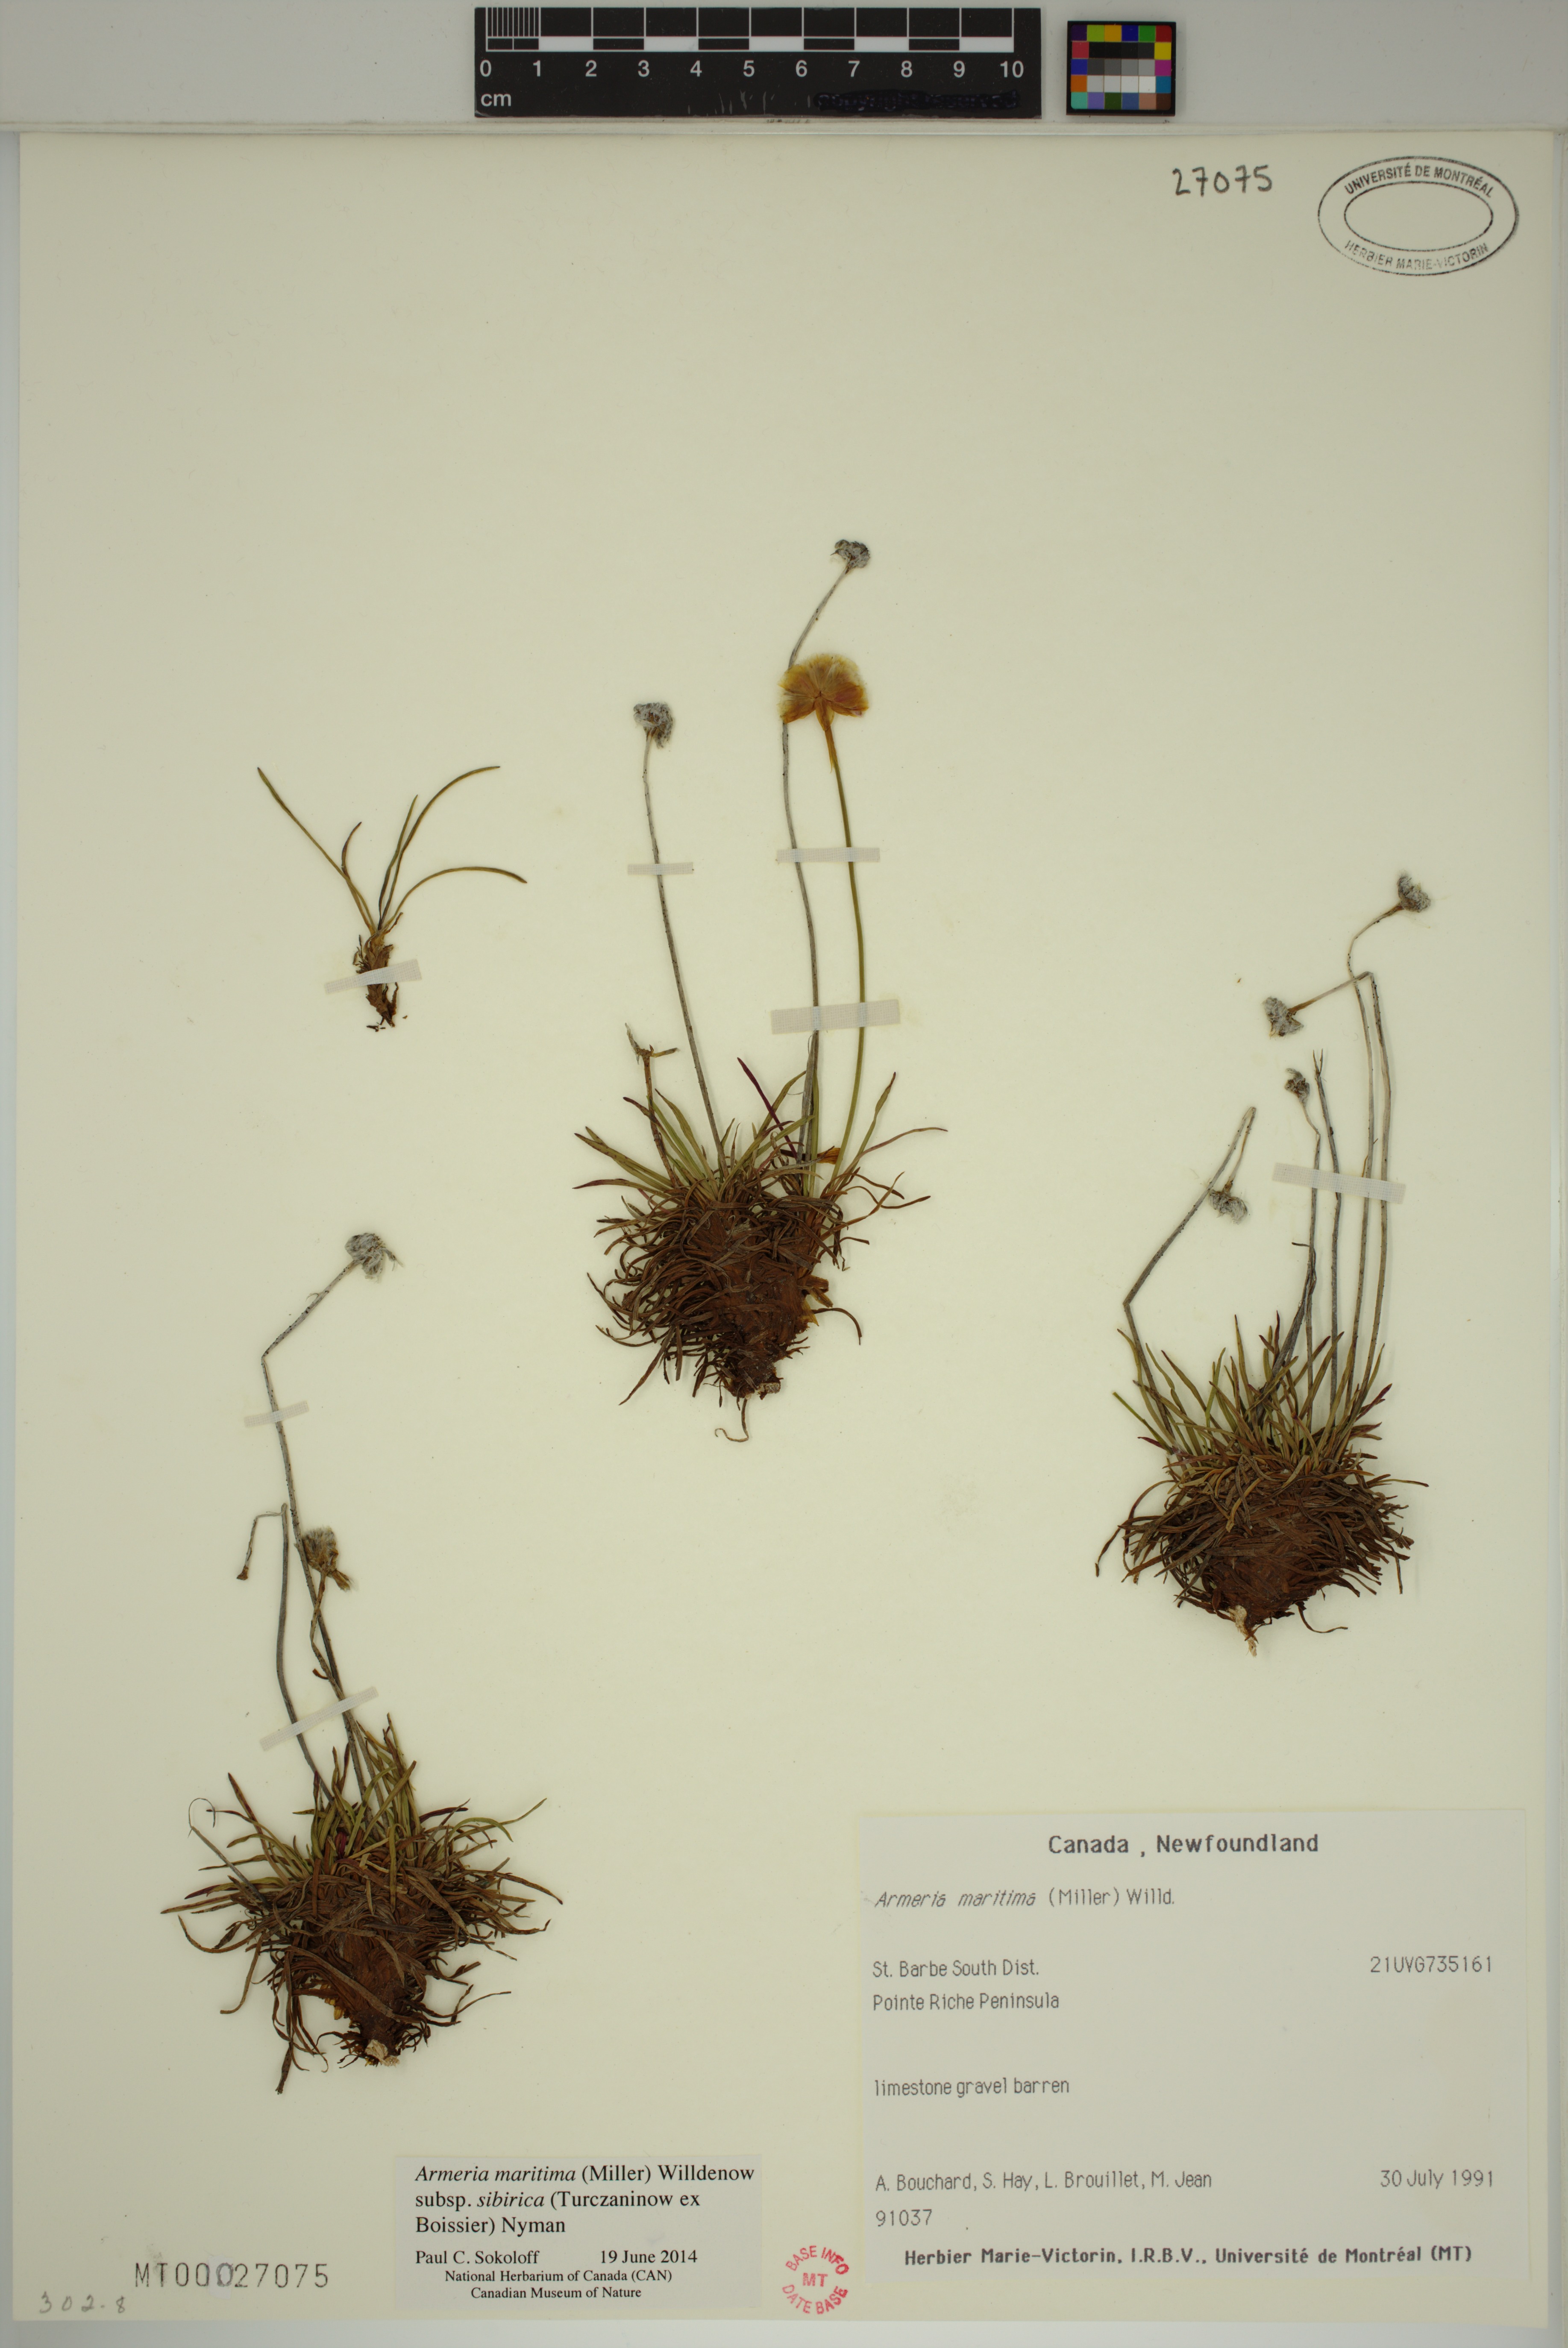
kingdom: Plantae
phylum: Tracheophyta
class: Magnoliopsida
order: Caryophyllales
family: Plumbaginaceae
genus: Armeria
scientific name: Armeria maritima
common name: Thrift
